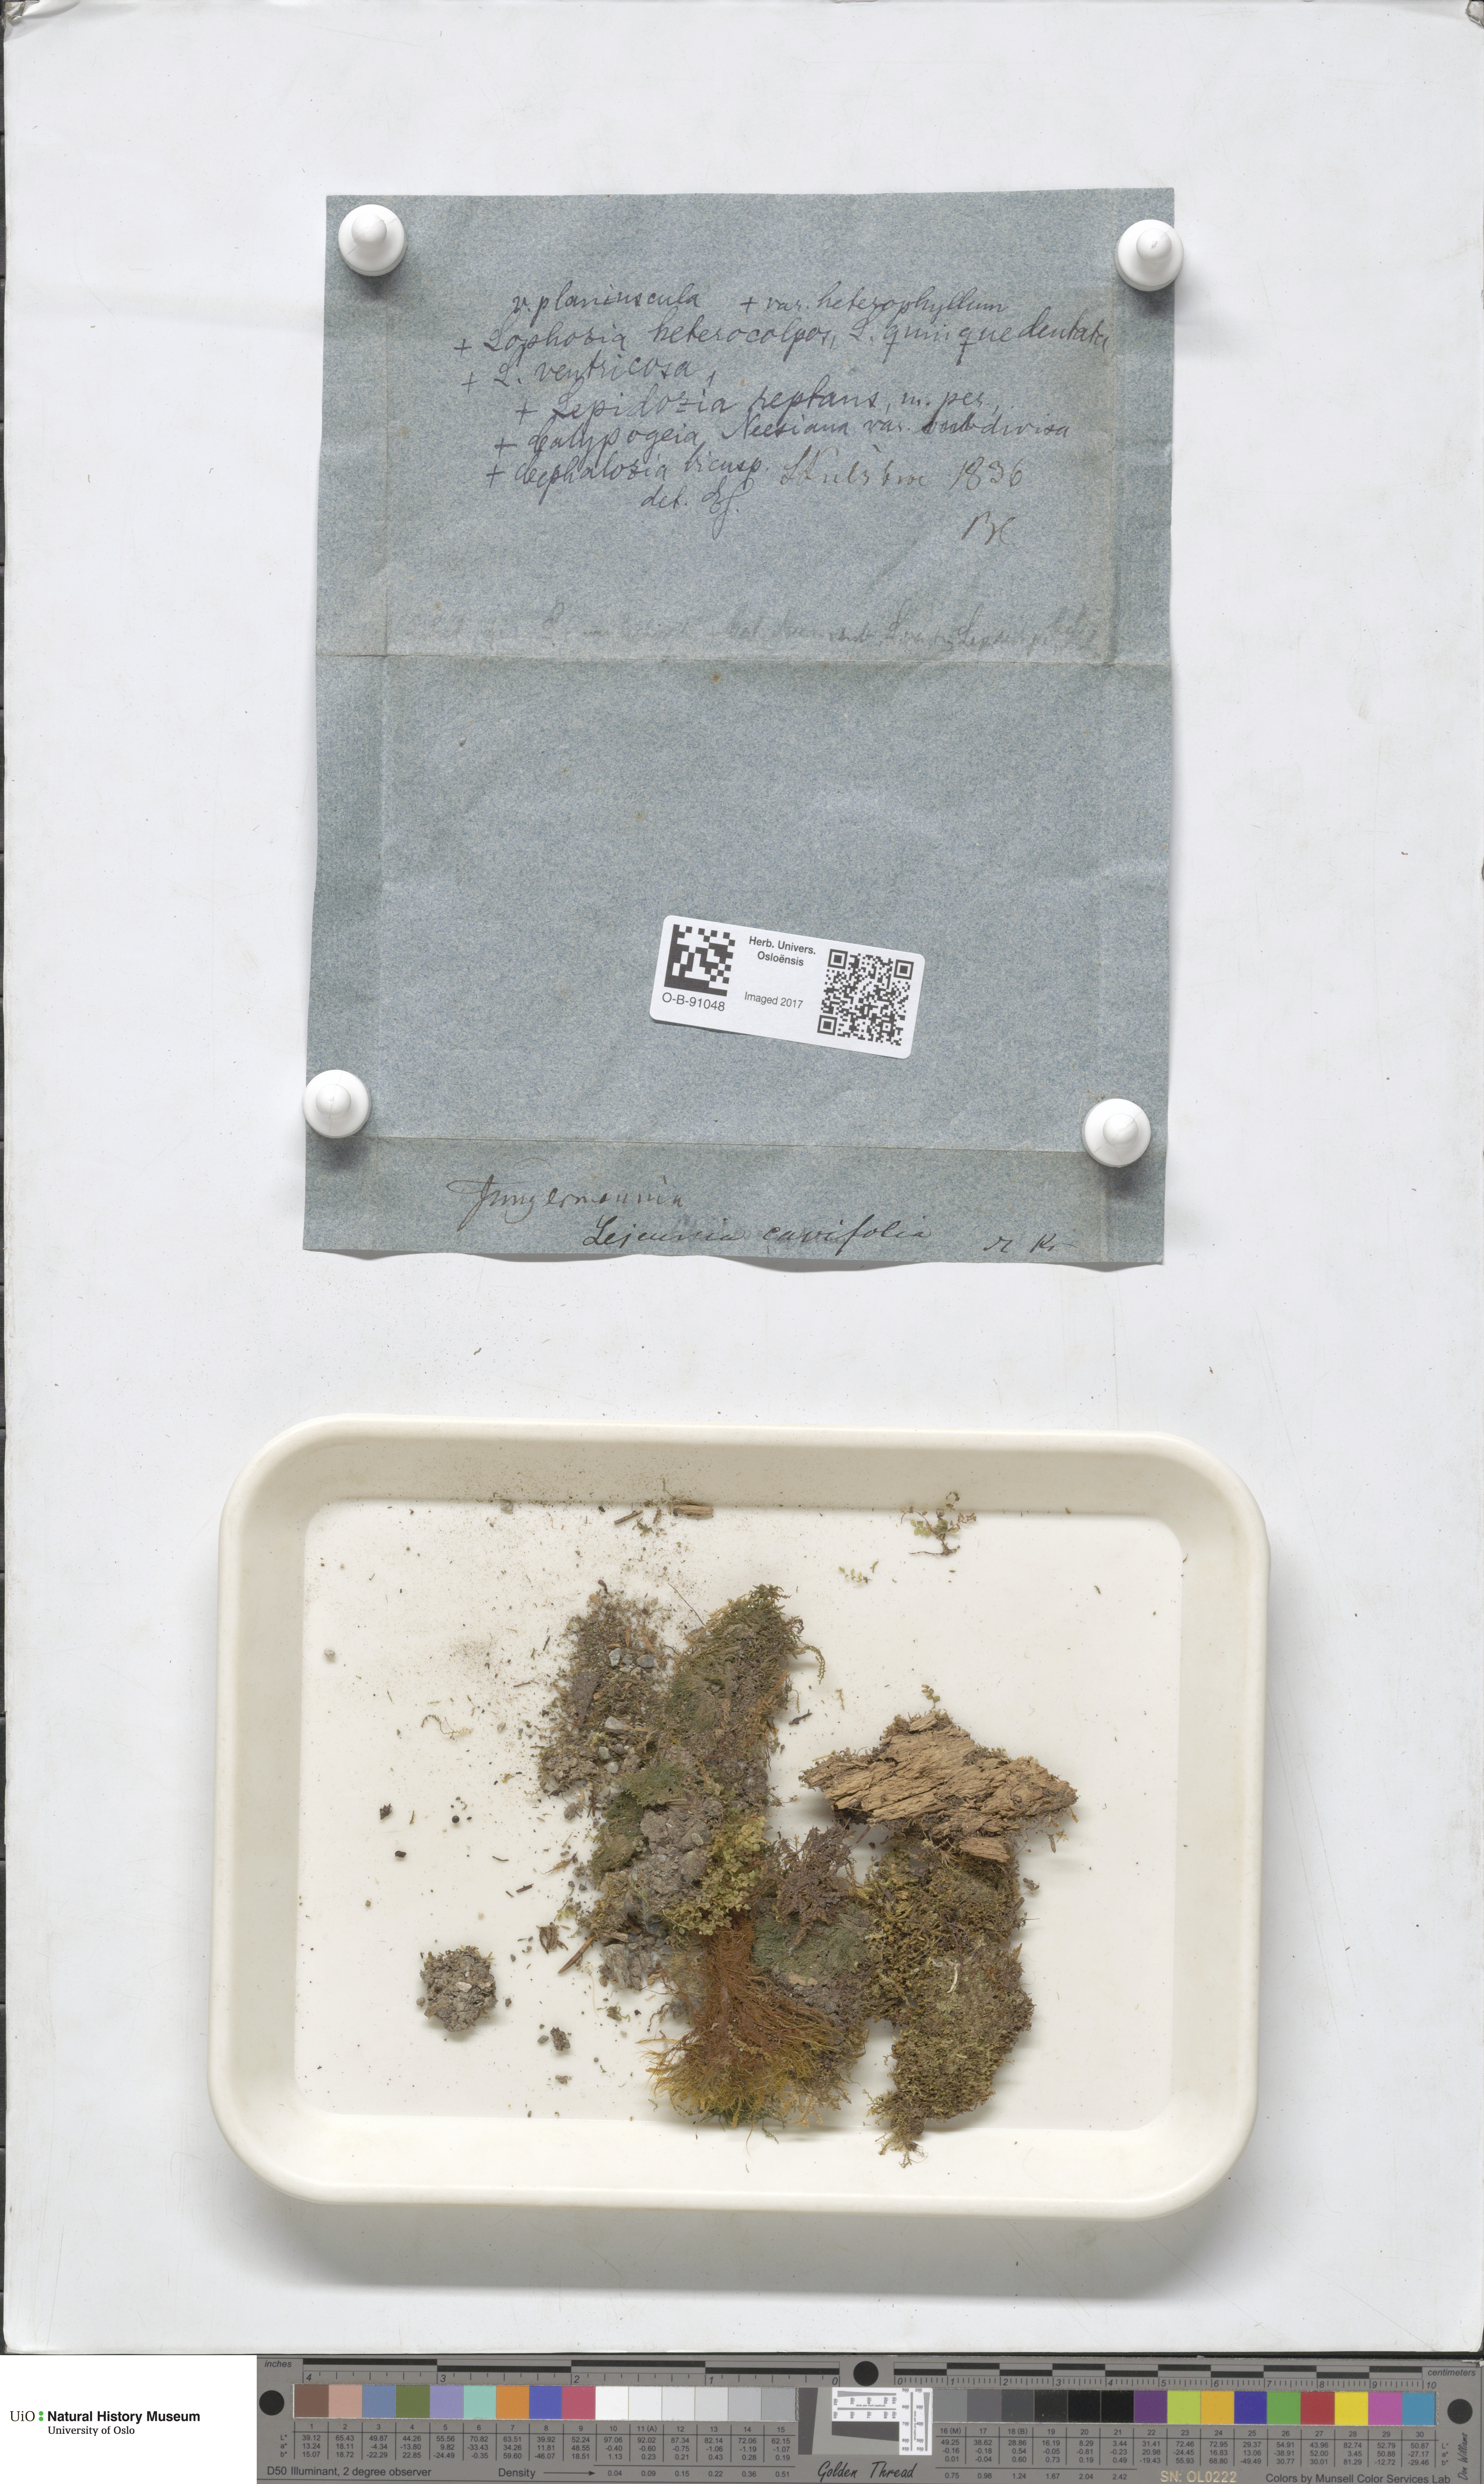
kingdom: Plantae
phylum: Marchantiophyta
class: Jungermanniopsida
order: Porellales
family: Lejeuneaceae
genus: Lejeunea
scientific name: Lejeunea cavifolia
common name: Least pouncewort
